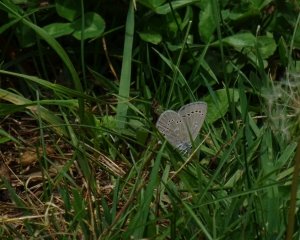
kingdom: Animalia
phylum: Arthropoda
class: Insecta
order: Lepidoptera
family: Lycaenidae
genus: Glaucopsyche
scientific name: Glaucopsyche lygdamus
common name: Silvery Blue
